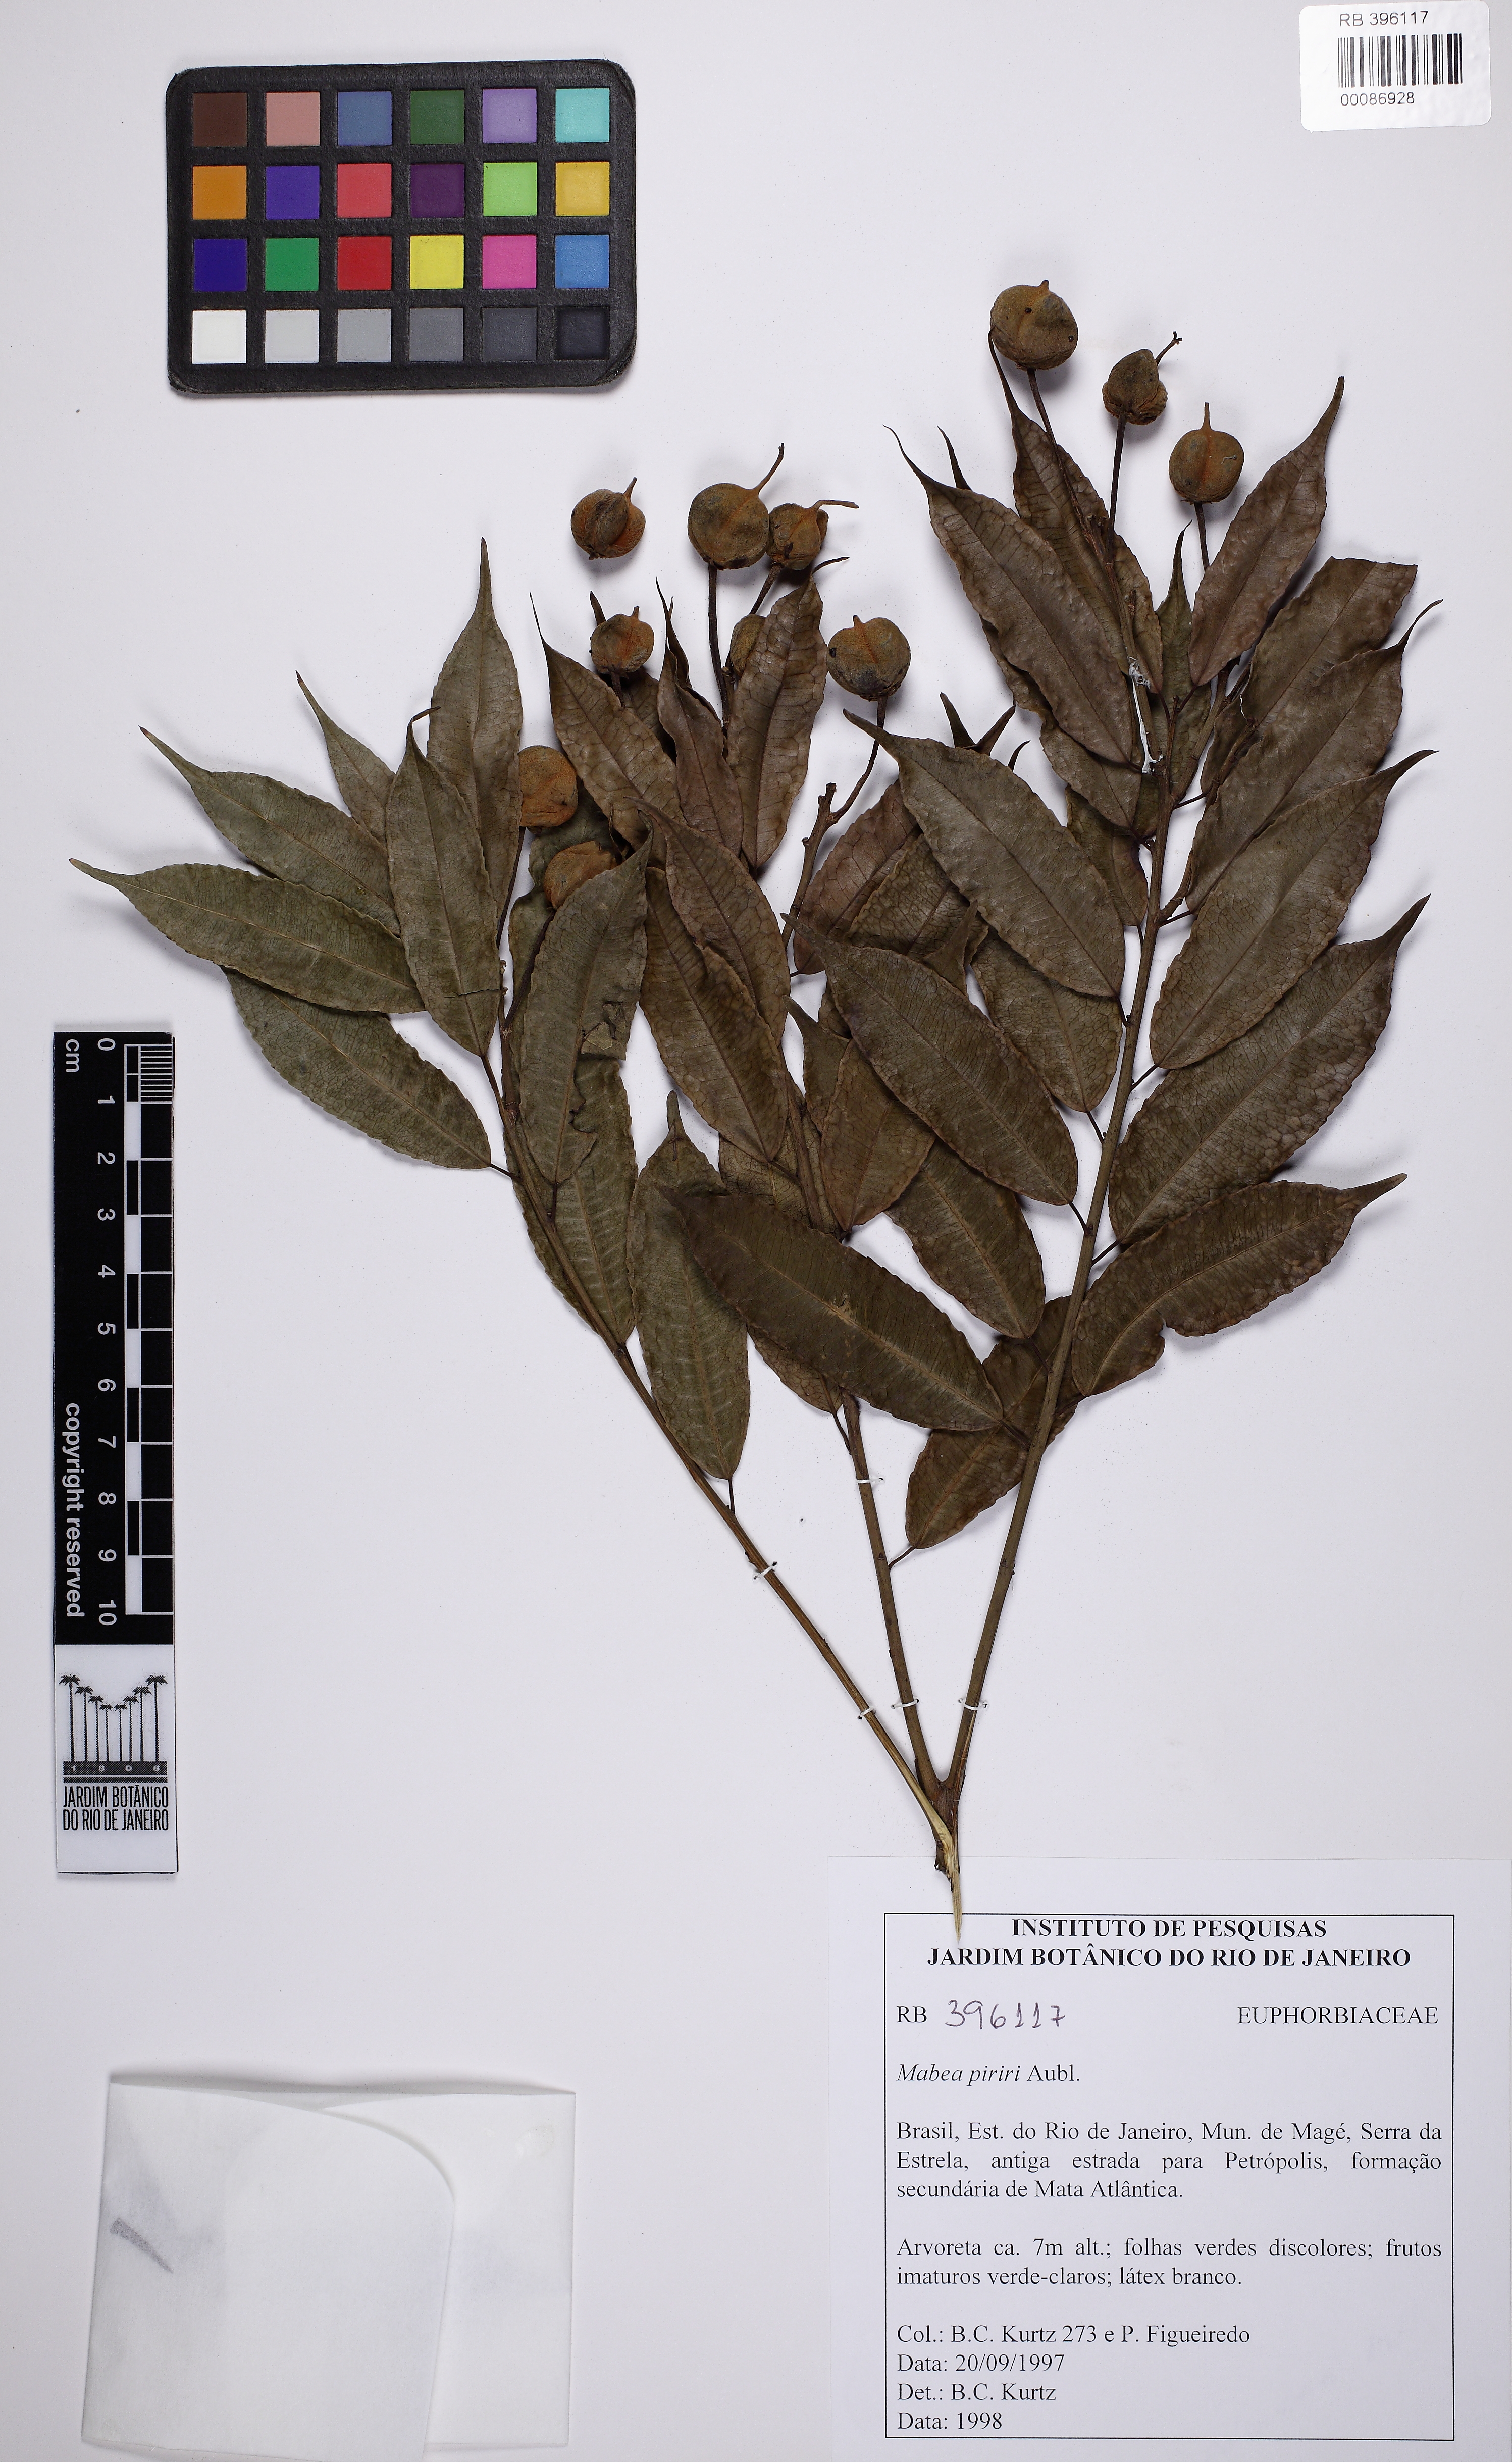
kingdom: Plantae
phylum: Tracheophyta
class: Magnoliopsida
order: Malpighiales
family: Euphorbiaceae
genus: Mabea
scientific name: Mabea piriri
